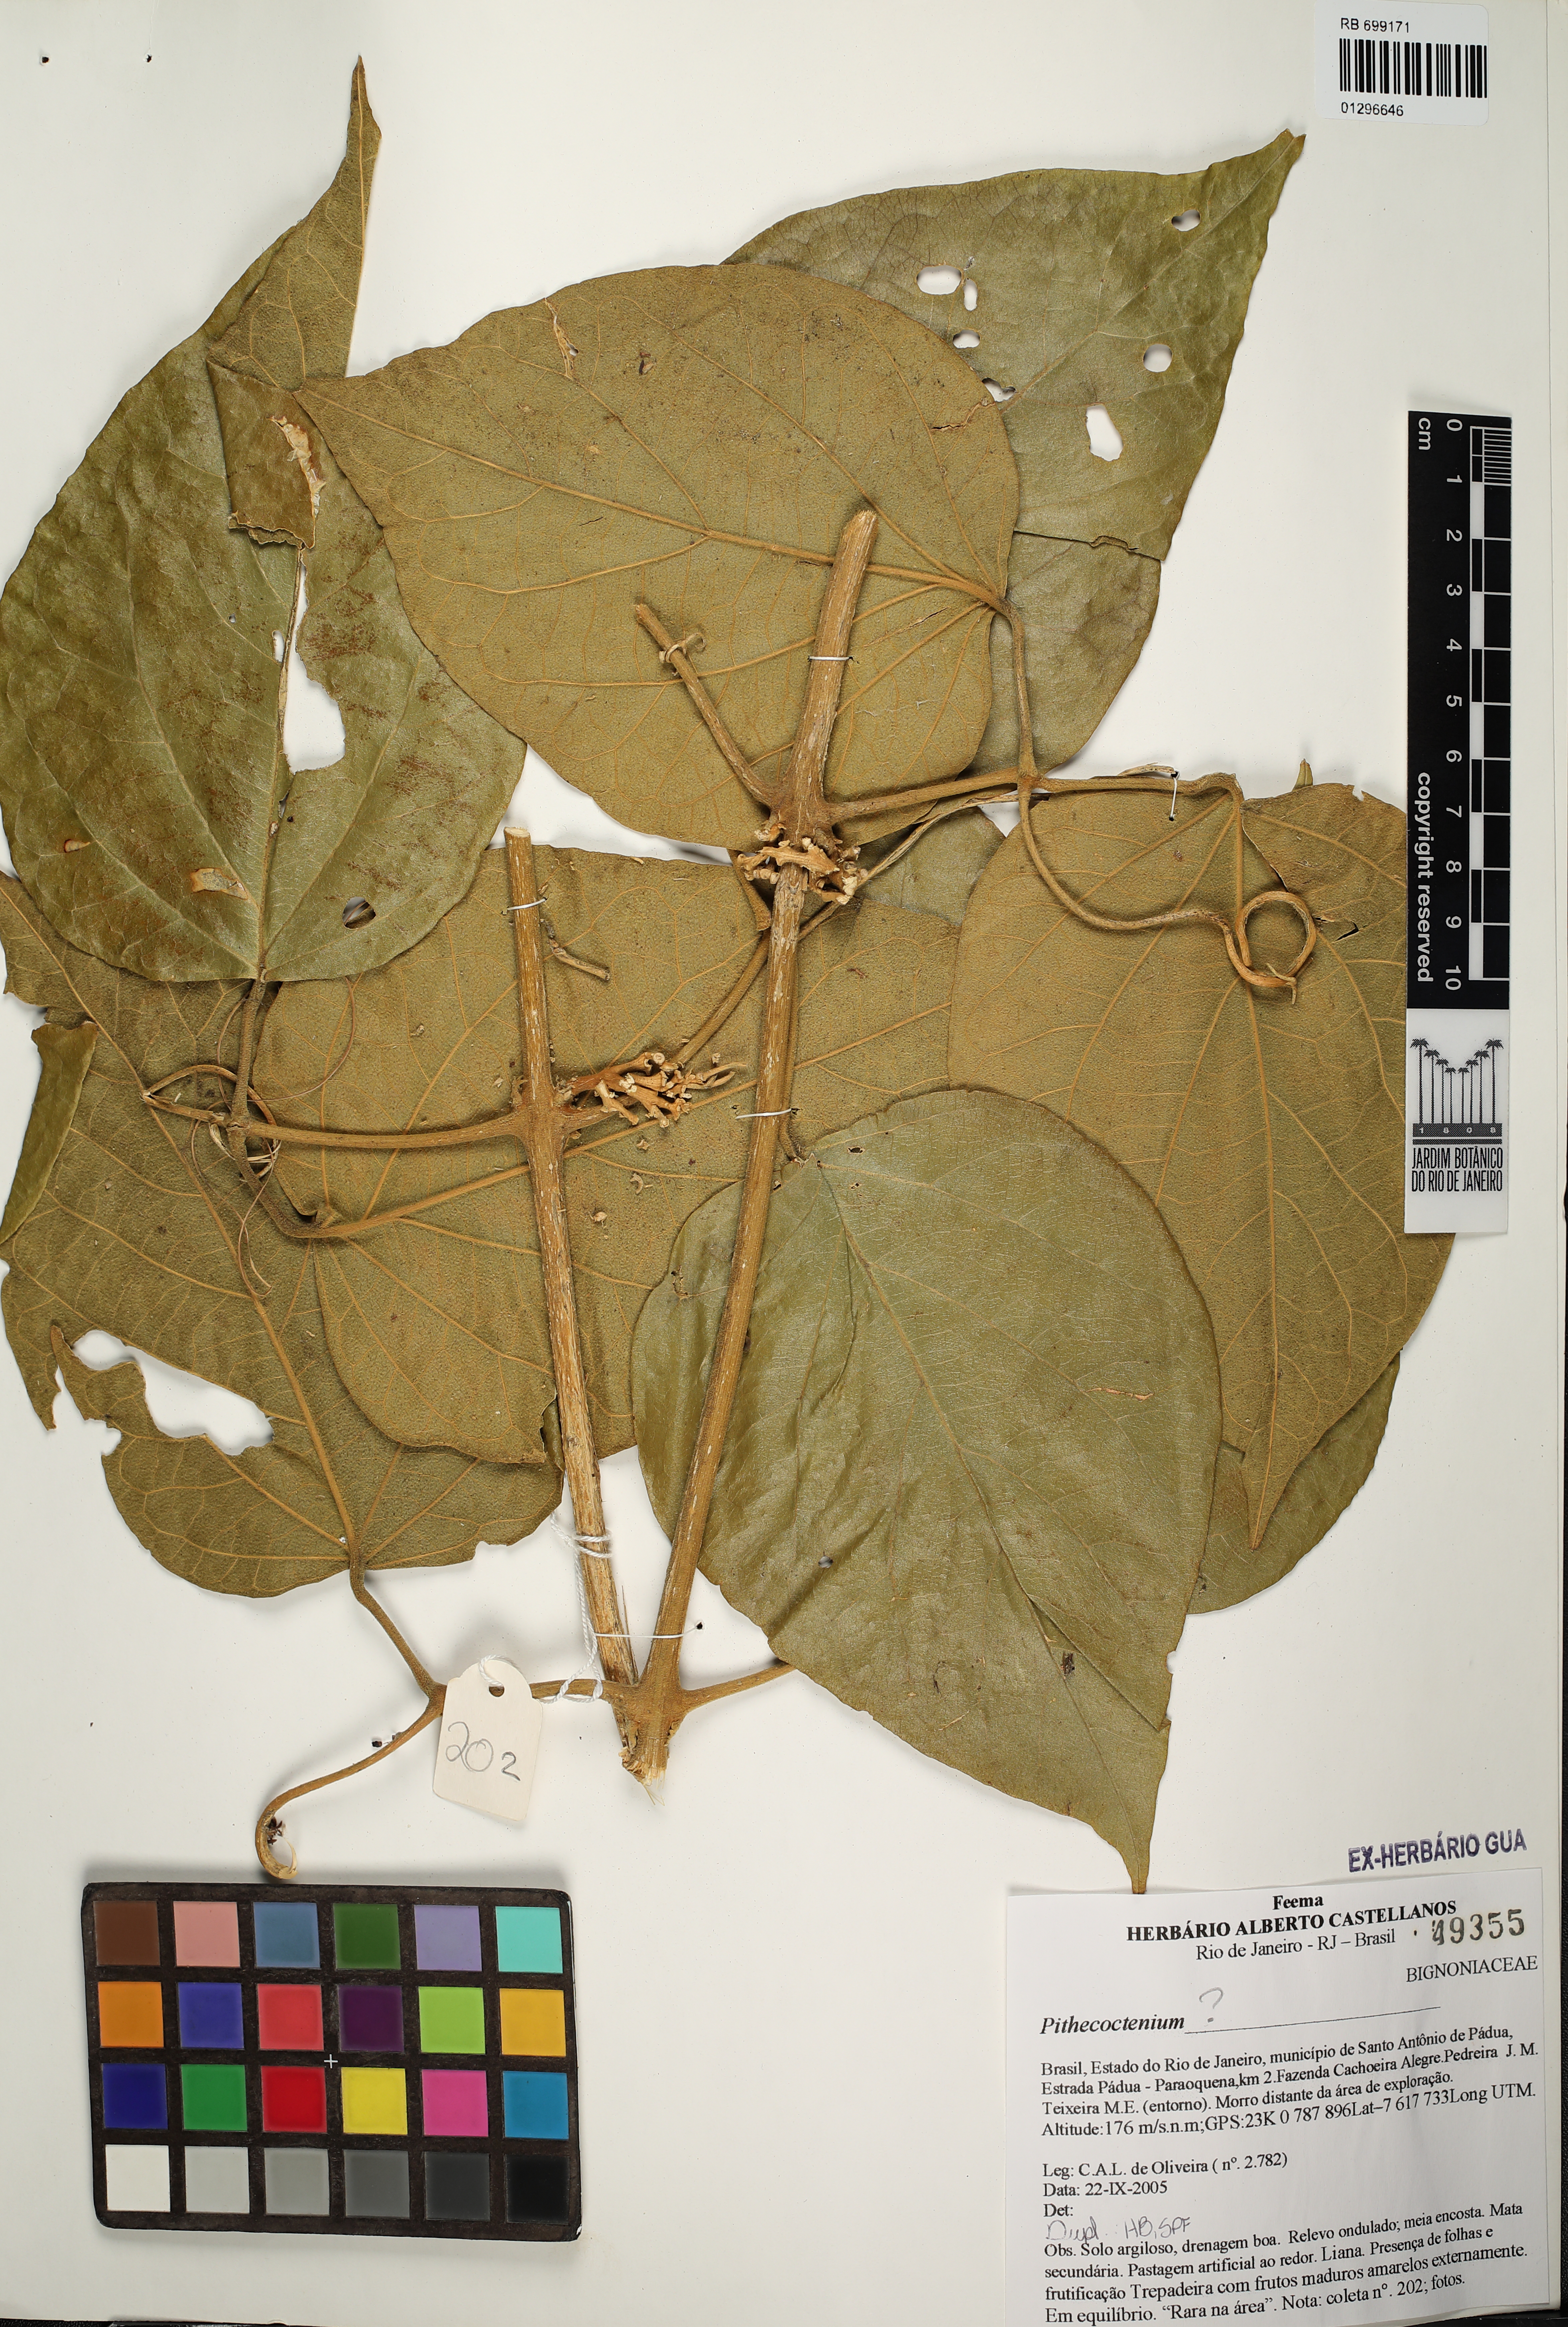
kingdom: Plantae
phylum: Tracheophyta
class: Magnoliopsida
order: Lamiales
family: Bignoniaceae
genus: Pithecoctenium
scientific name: Pithecoctenium
